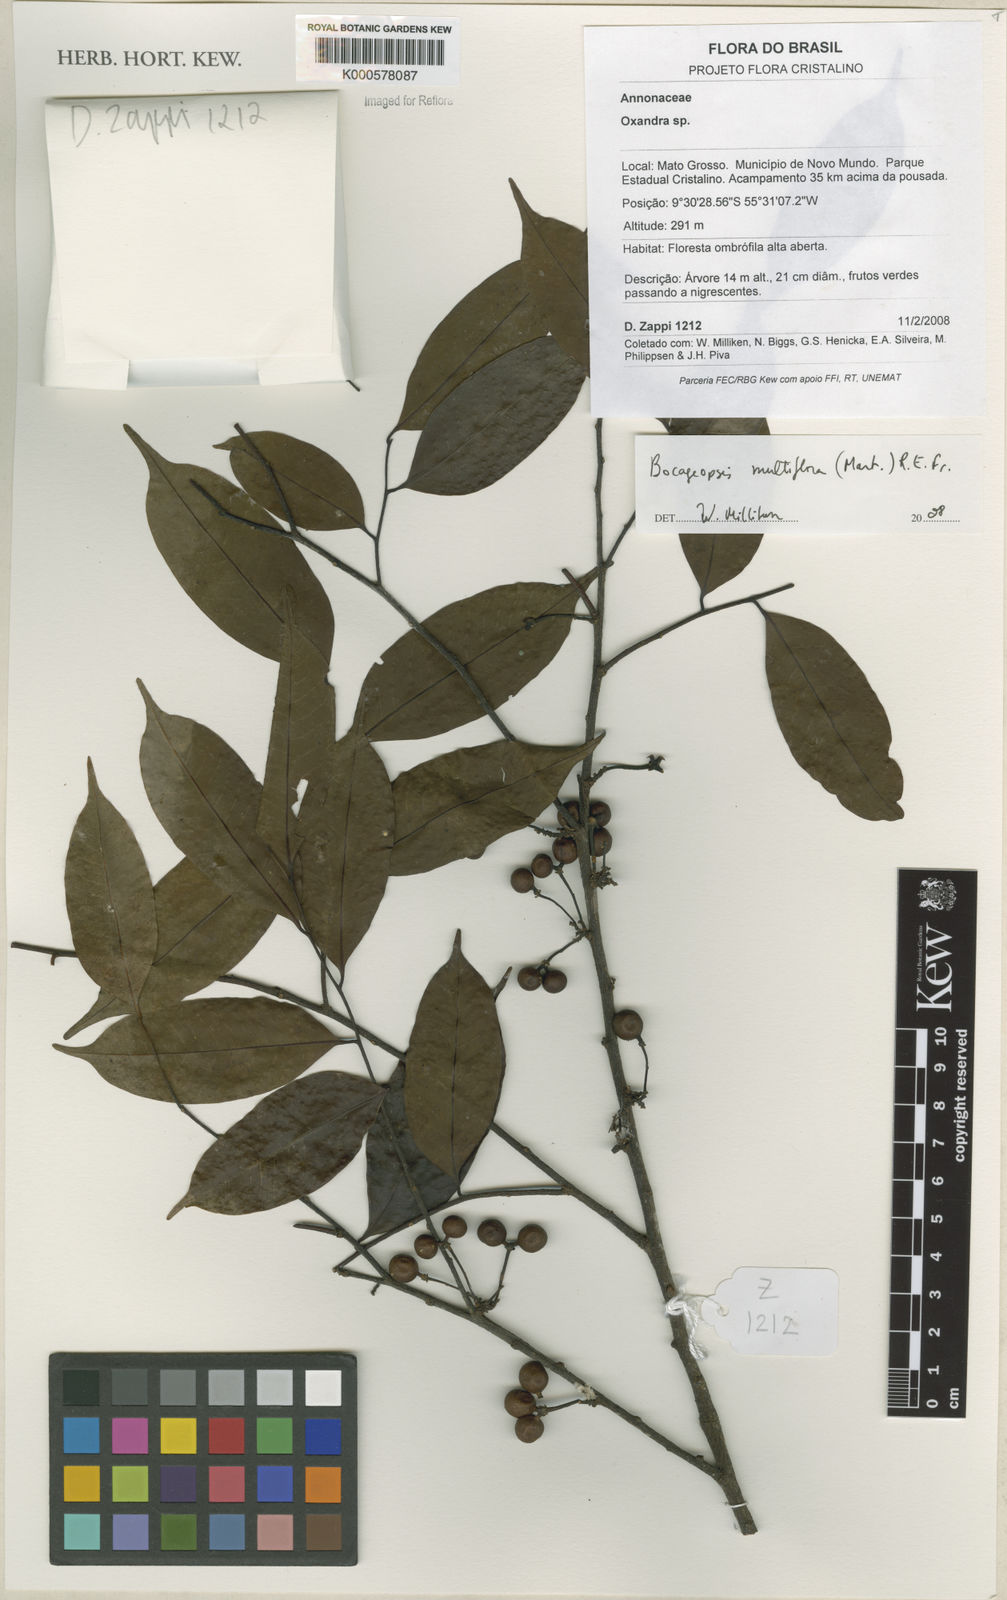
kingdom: Plantae
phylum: Tracheophyta
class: Magnoliopsida
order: Magnoliales
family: Annonaceae
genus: Bocageopsis
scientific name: Bocageopsis multiflora
